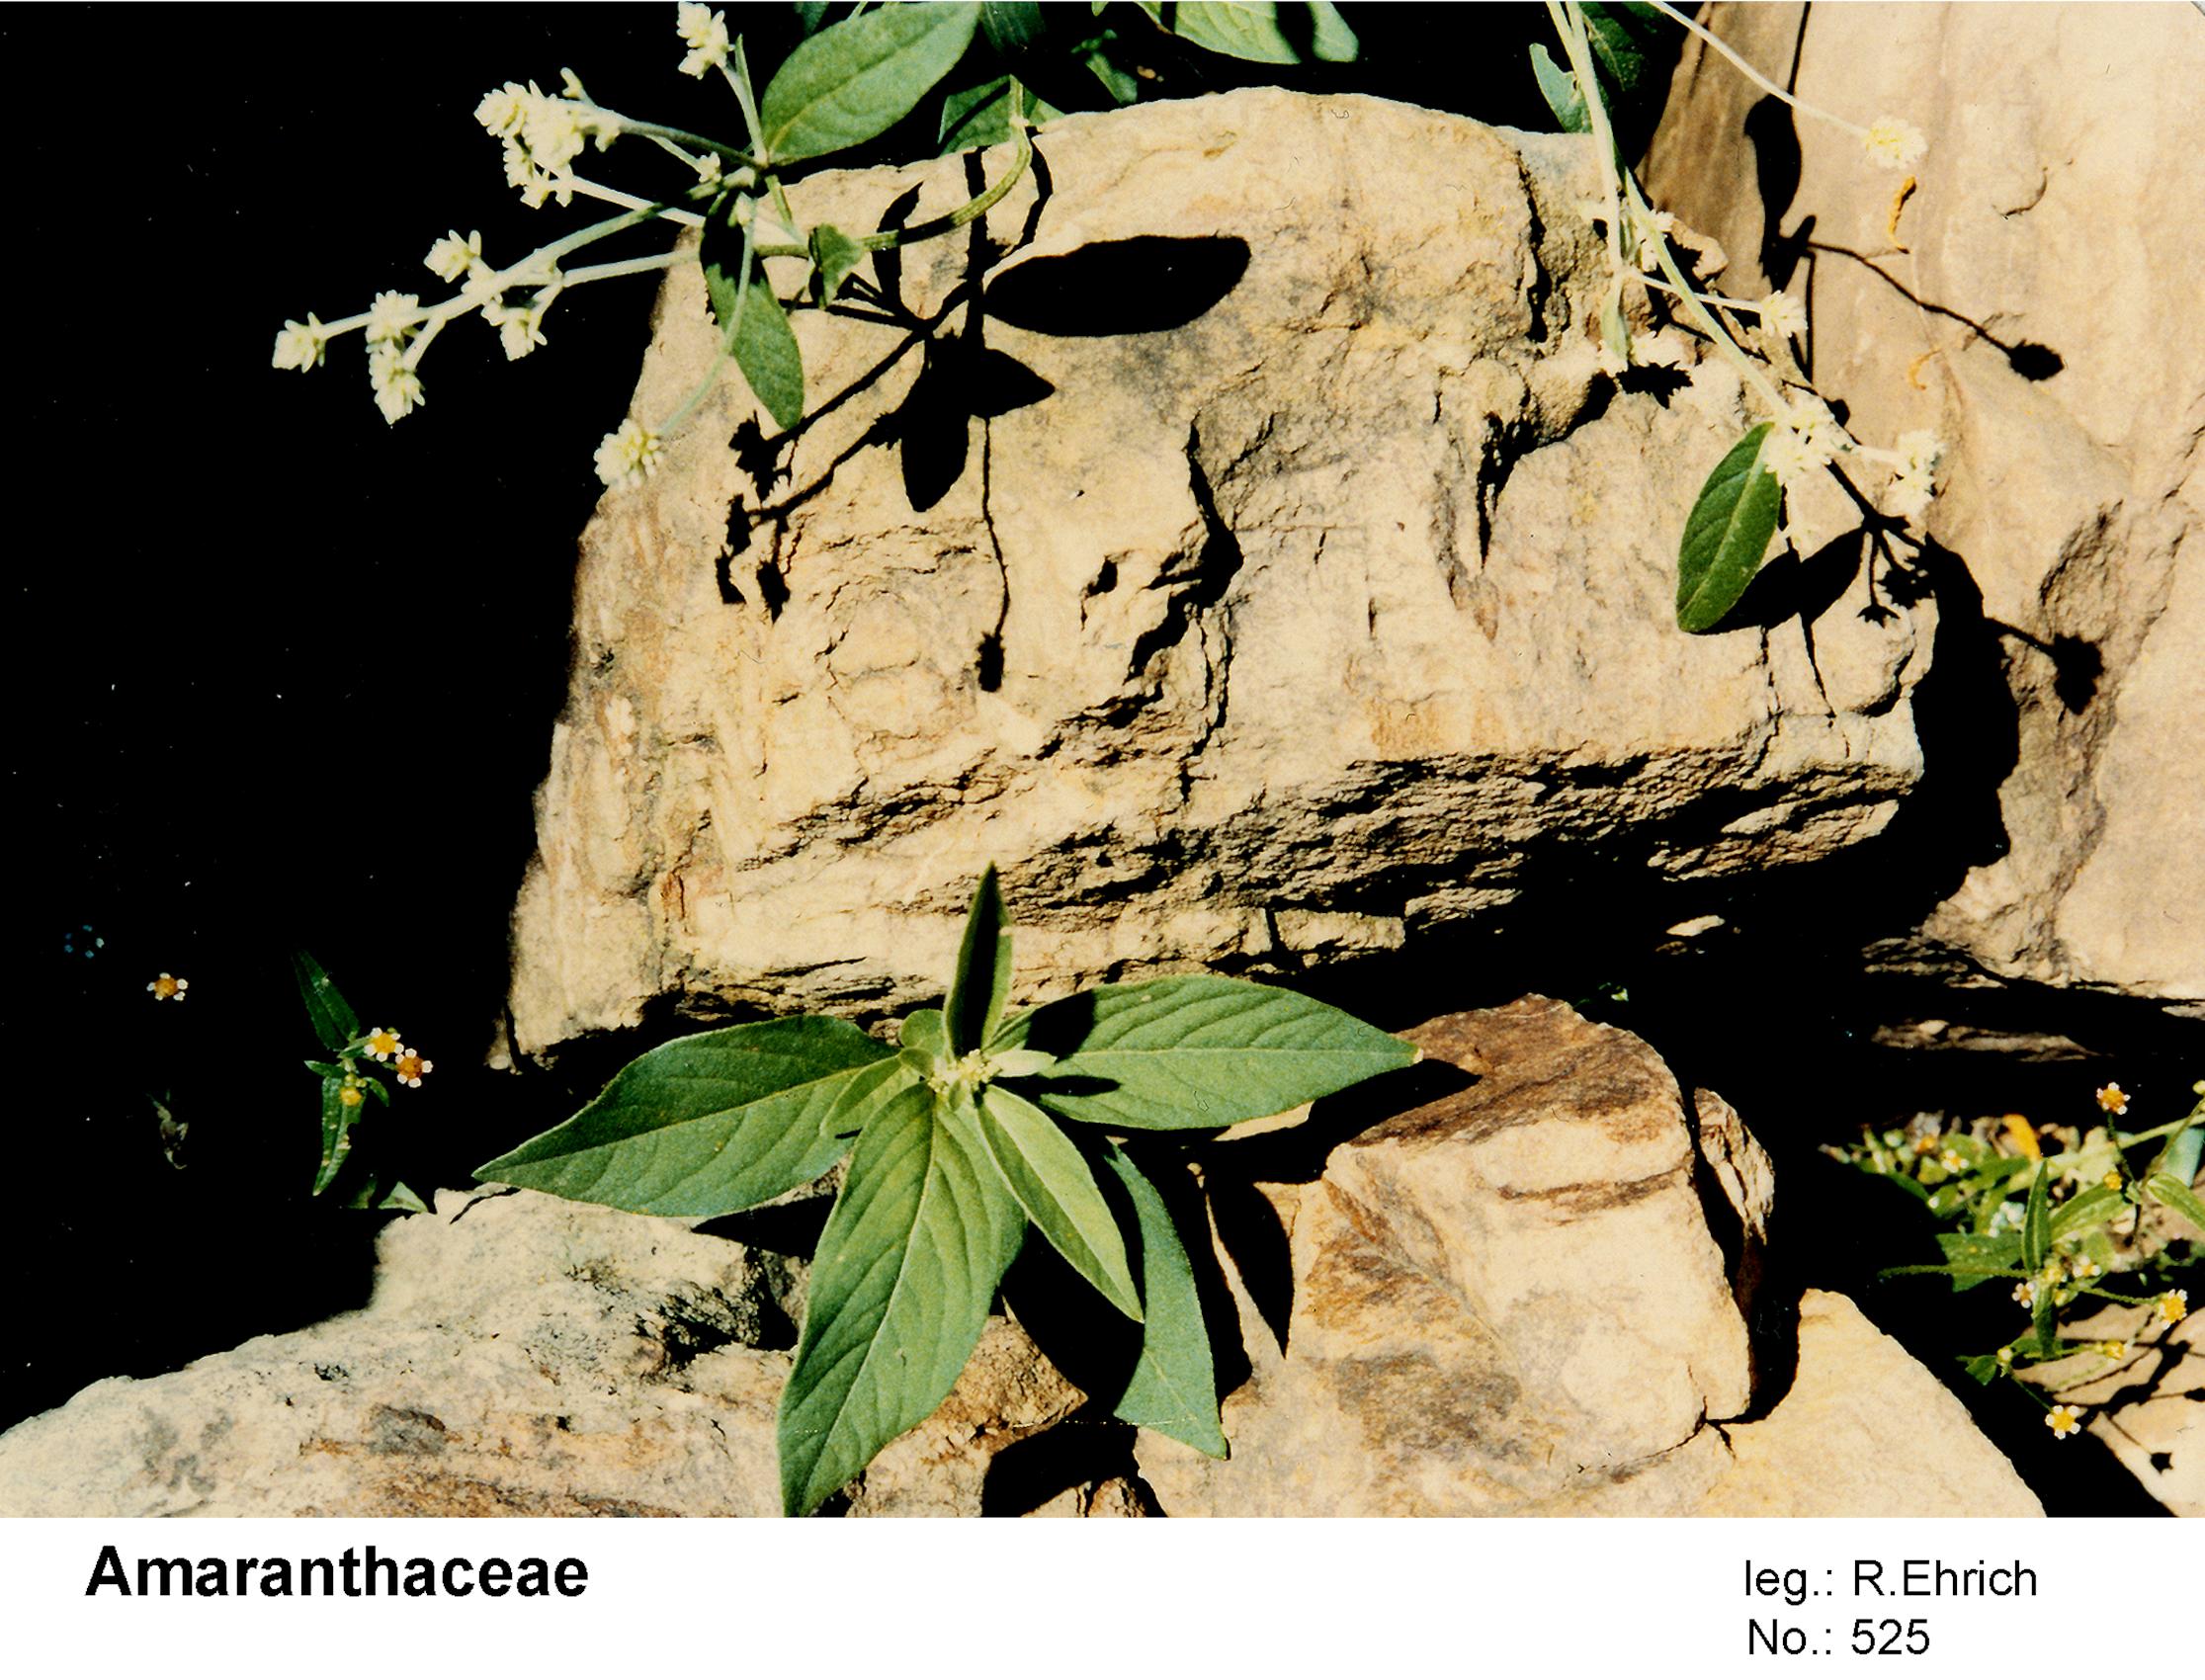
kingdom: Plantae
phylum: Tracheophyta
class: Magnoliopsida
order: Caryophyllales
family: Amaranthaceae
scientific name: Amaranthaceae
